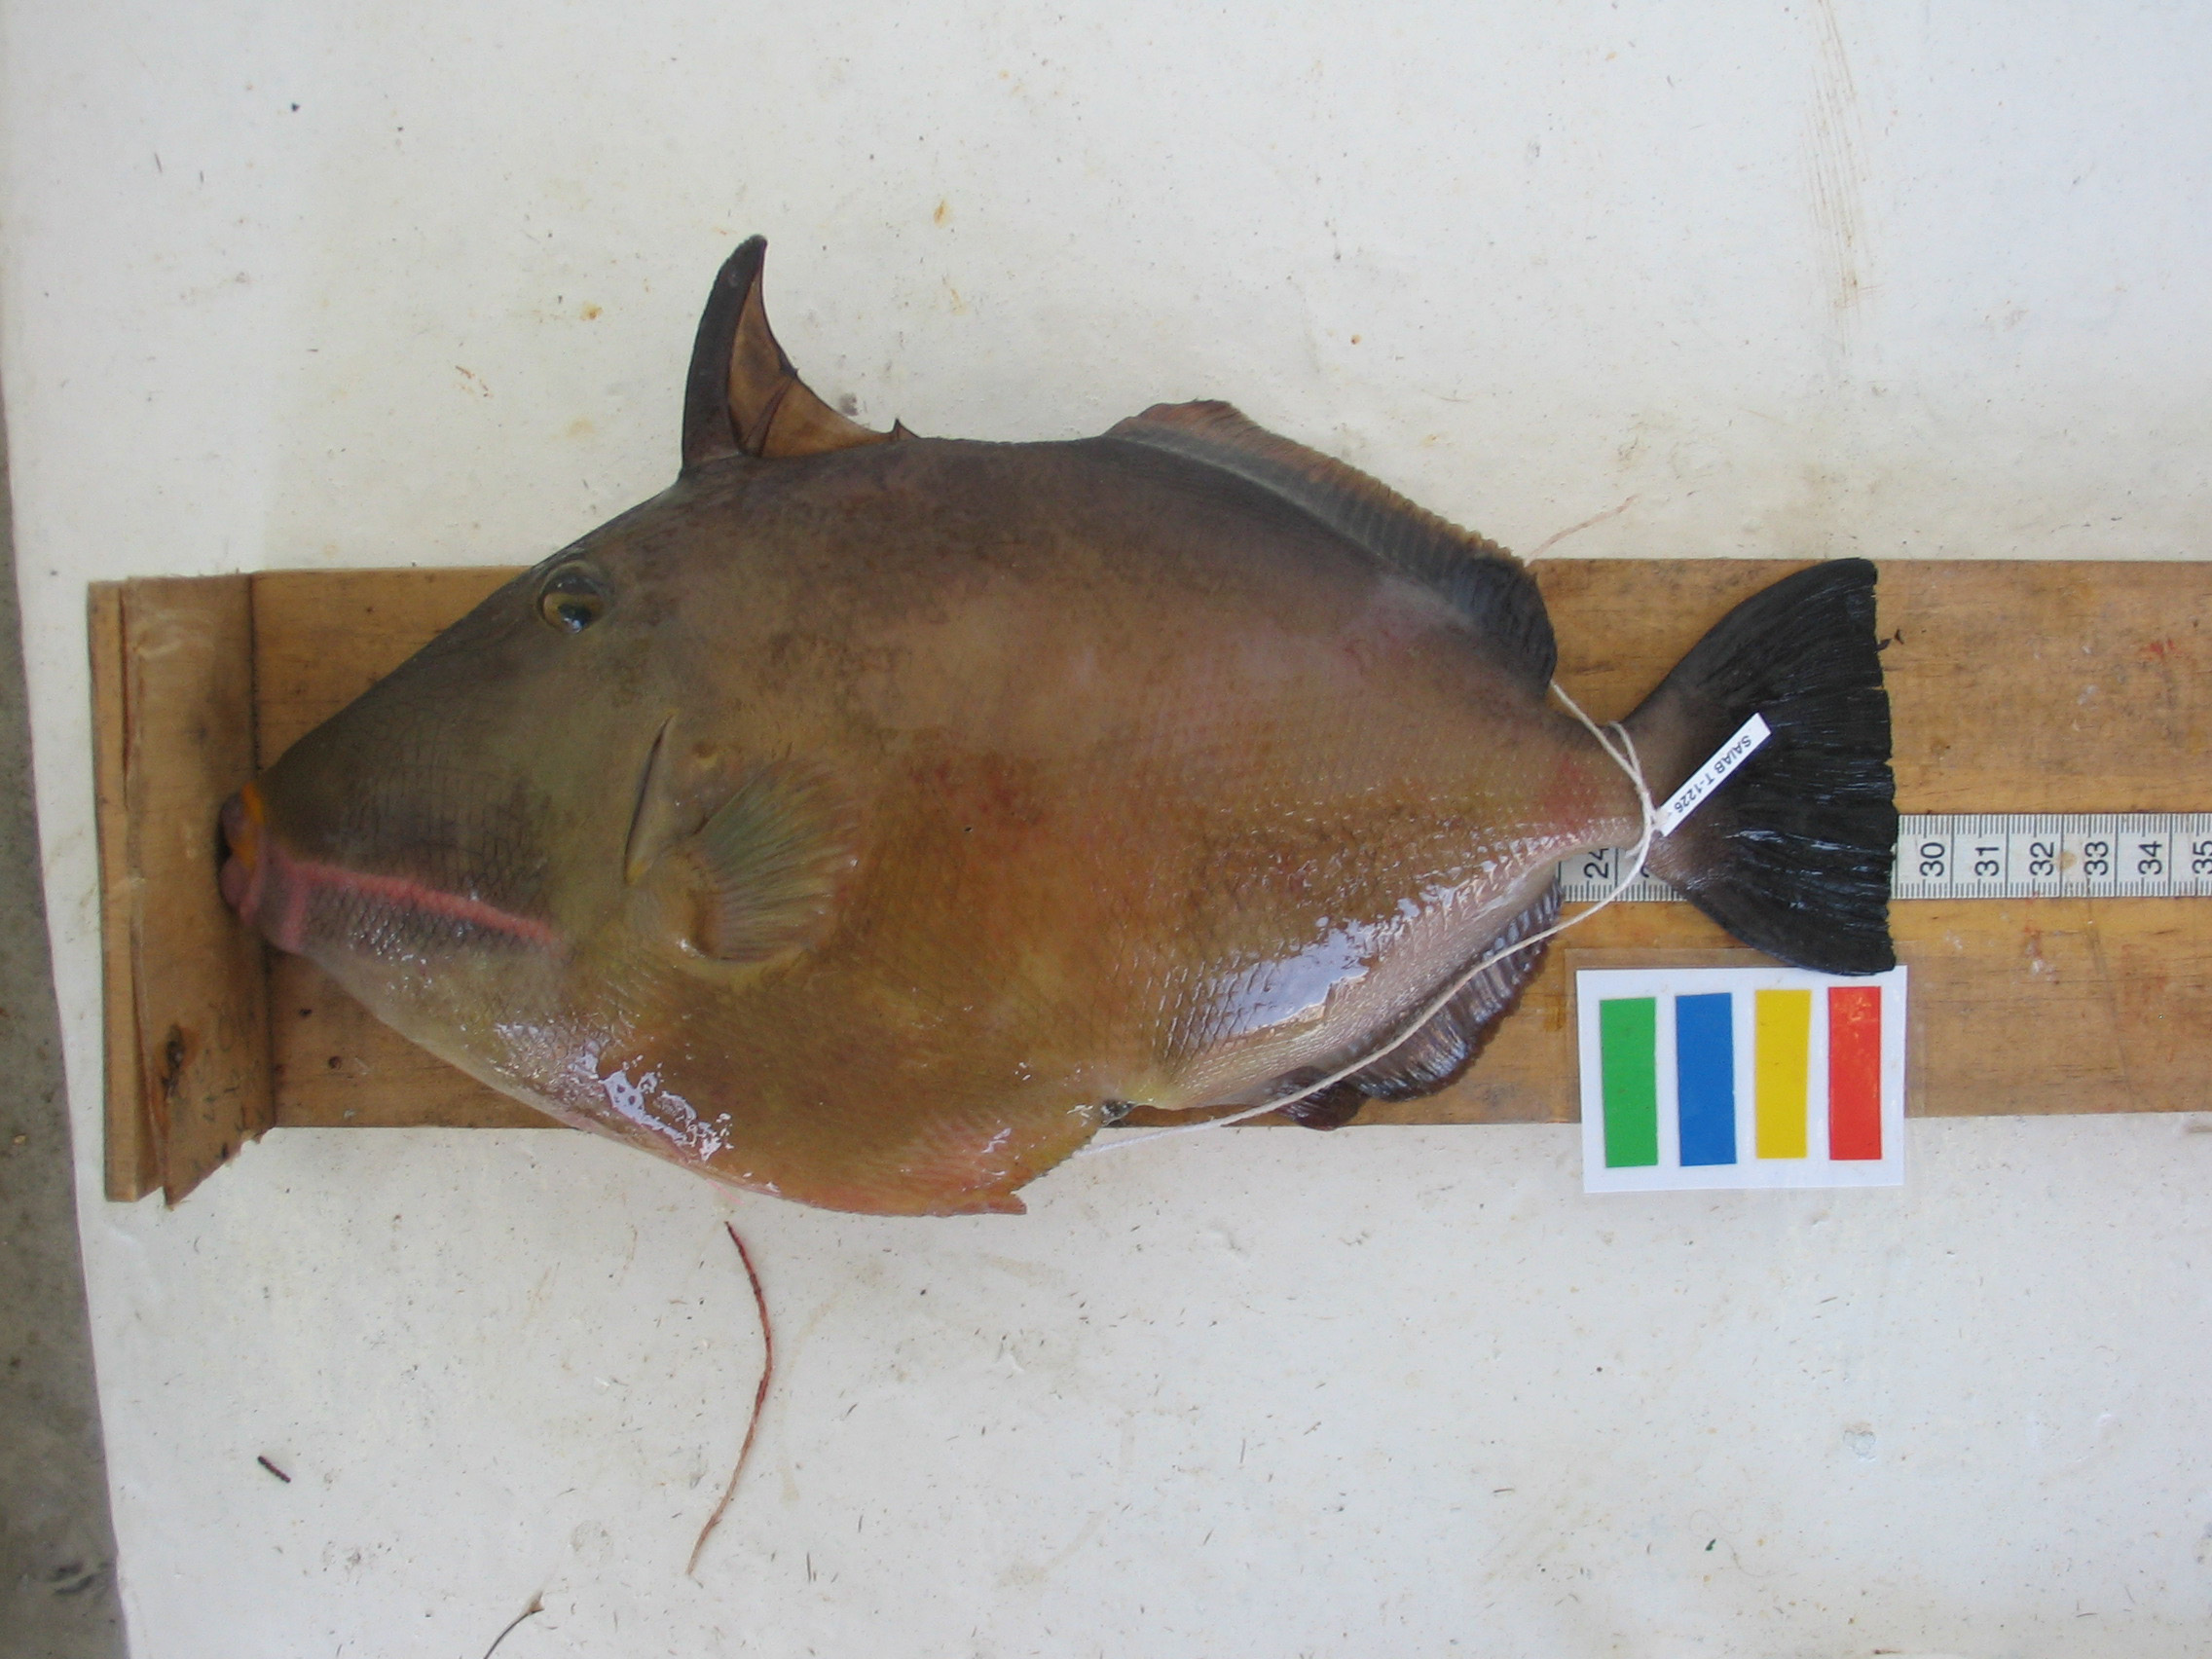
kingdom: Animalia
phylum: Chordata
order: Tetraodontiformes
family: Balistidae
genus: Sufflamen
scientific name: Sufflamen fraenatum
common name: Bridle triggerfish
